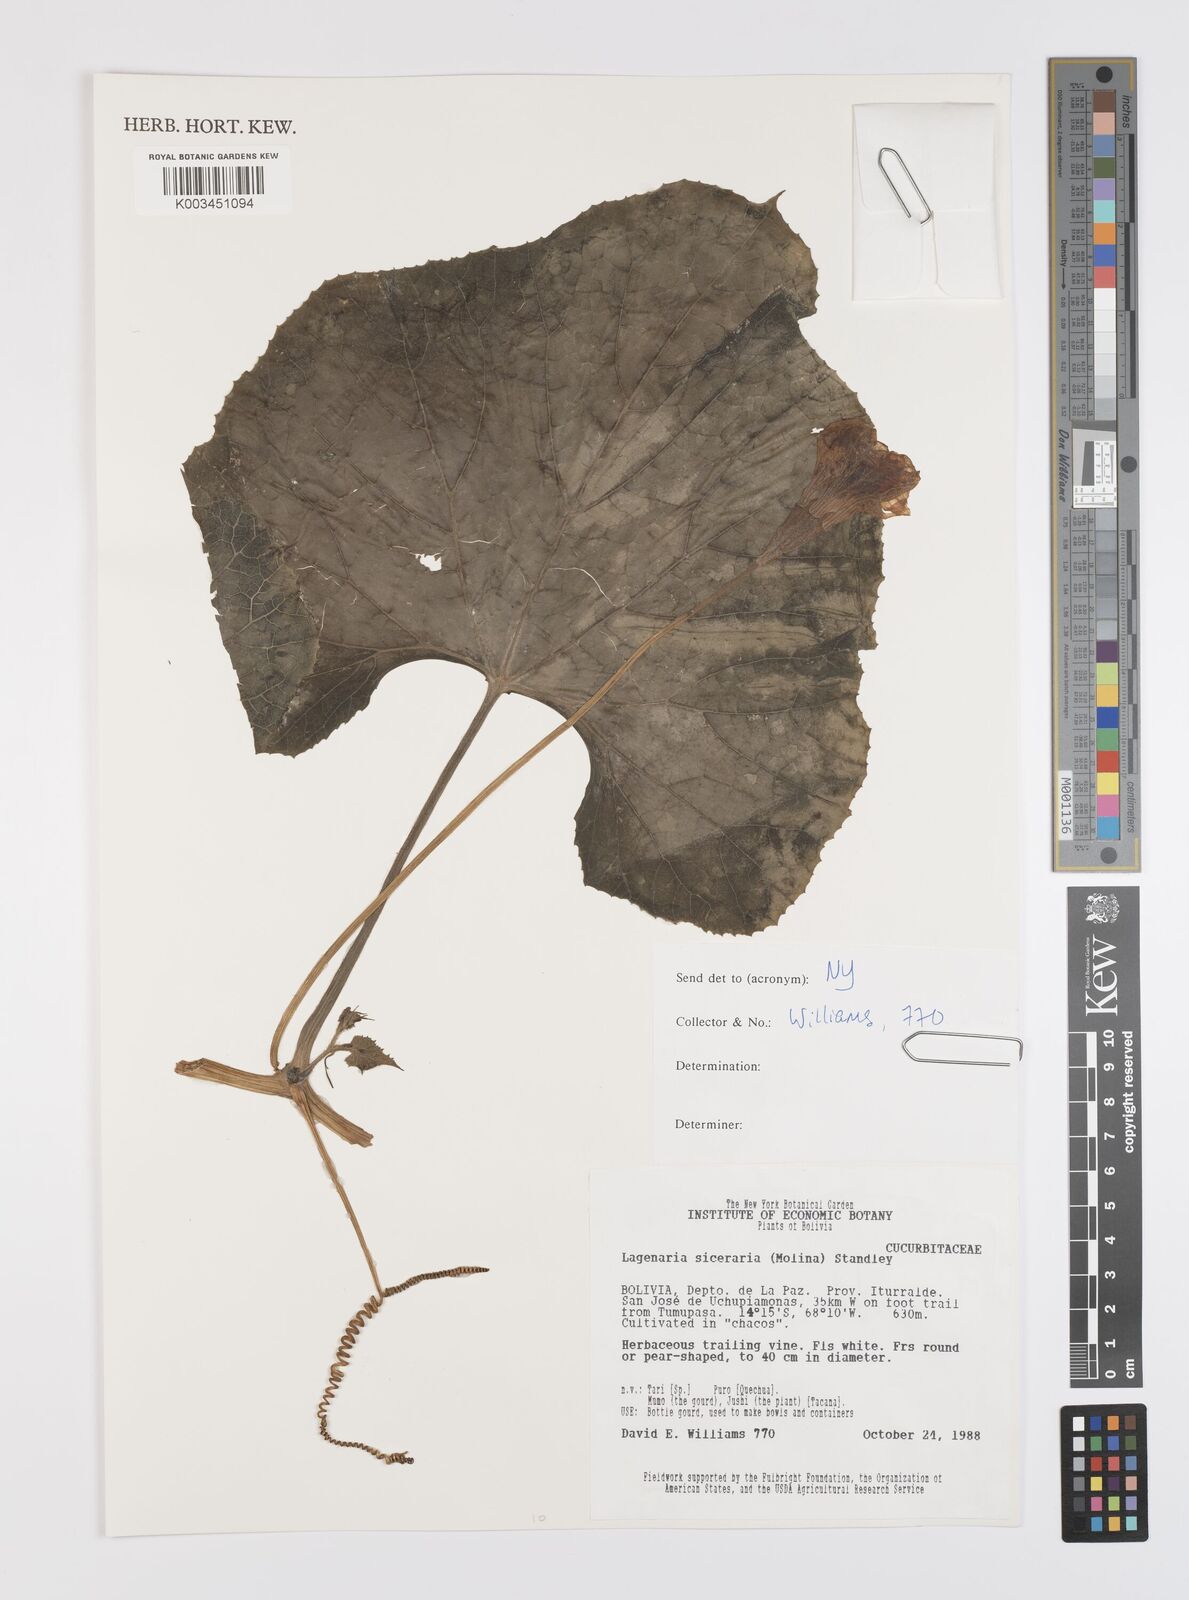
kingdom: Plantae
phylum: Tracheophyta
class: Magnoliopsida
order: Cucurbitales
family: Cucurbitaceae
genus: Lagenaria
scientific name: Lagenaria siceraria
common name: Bottle gourd
